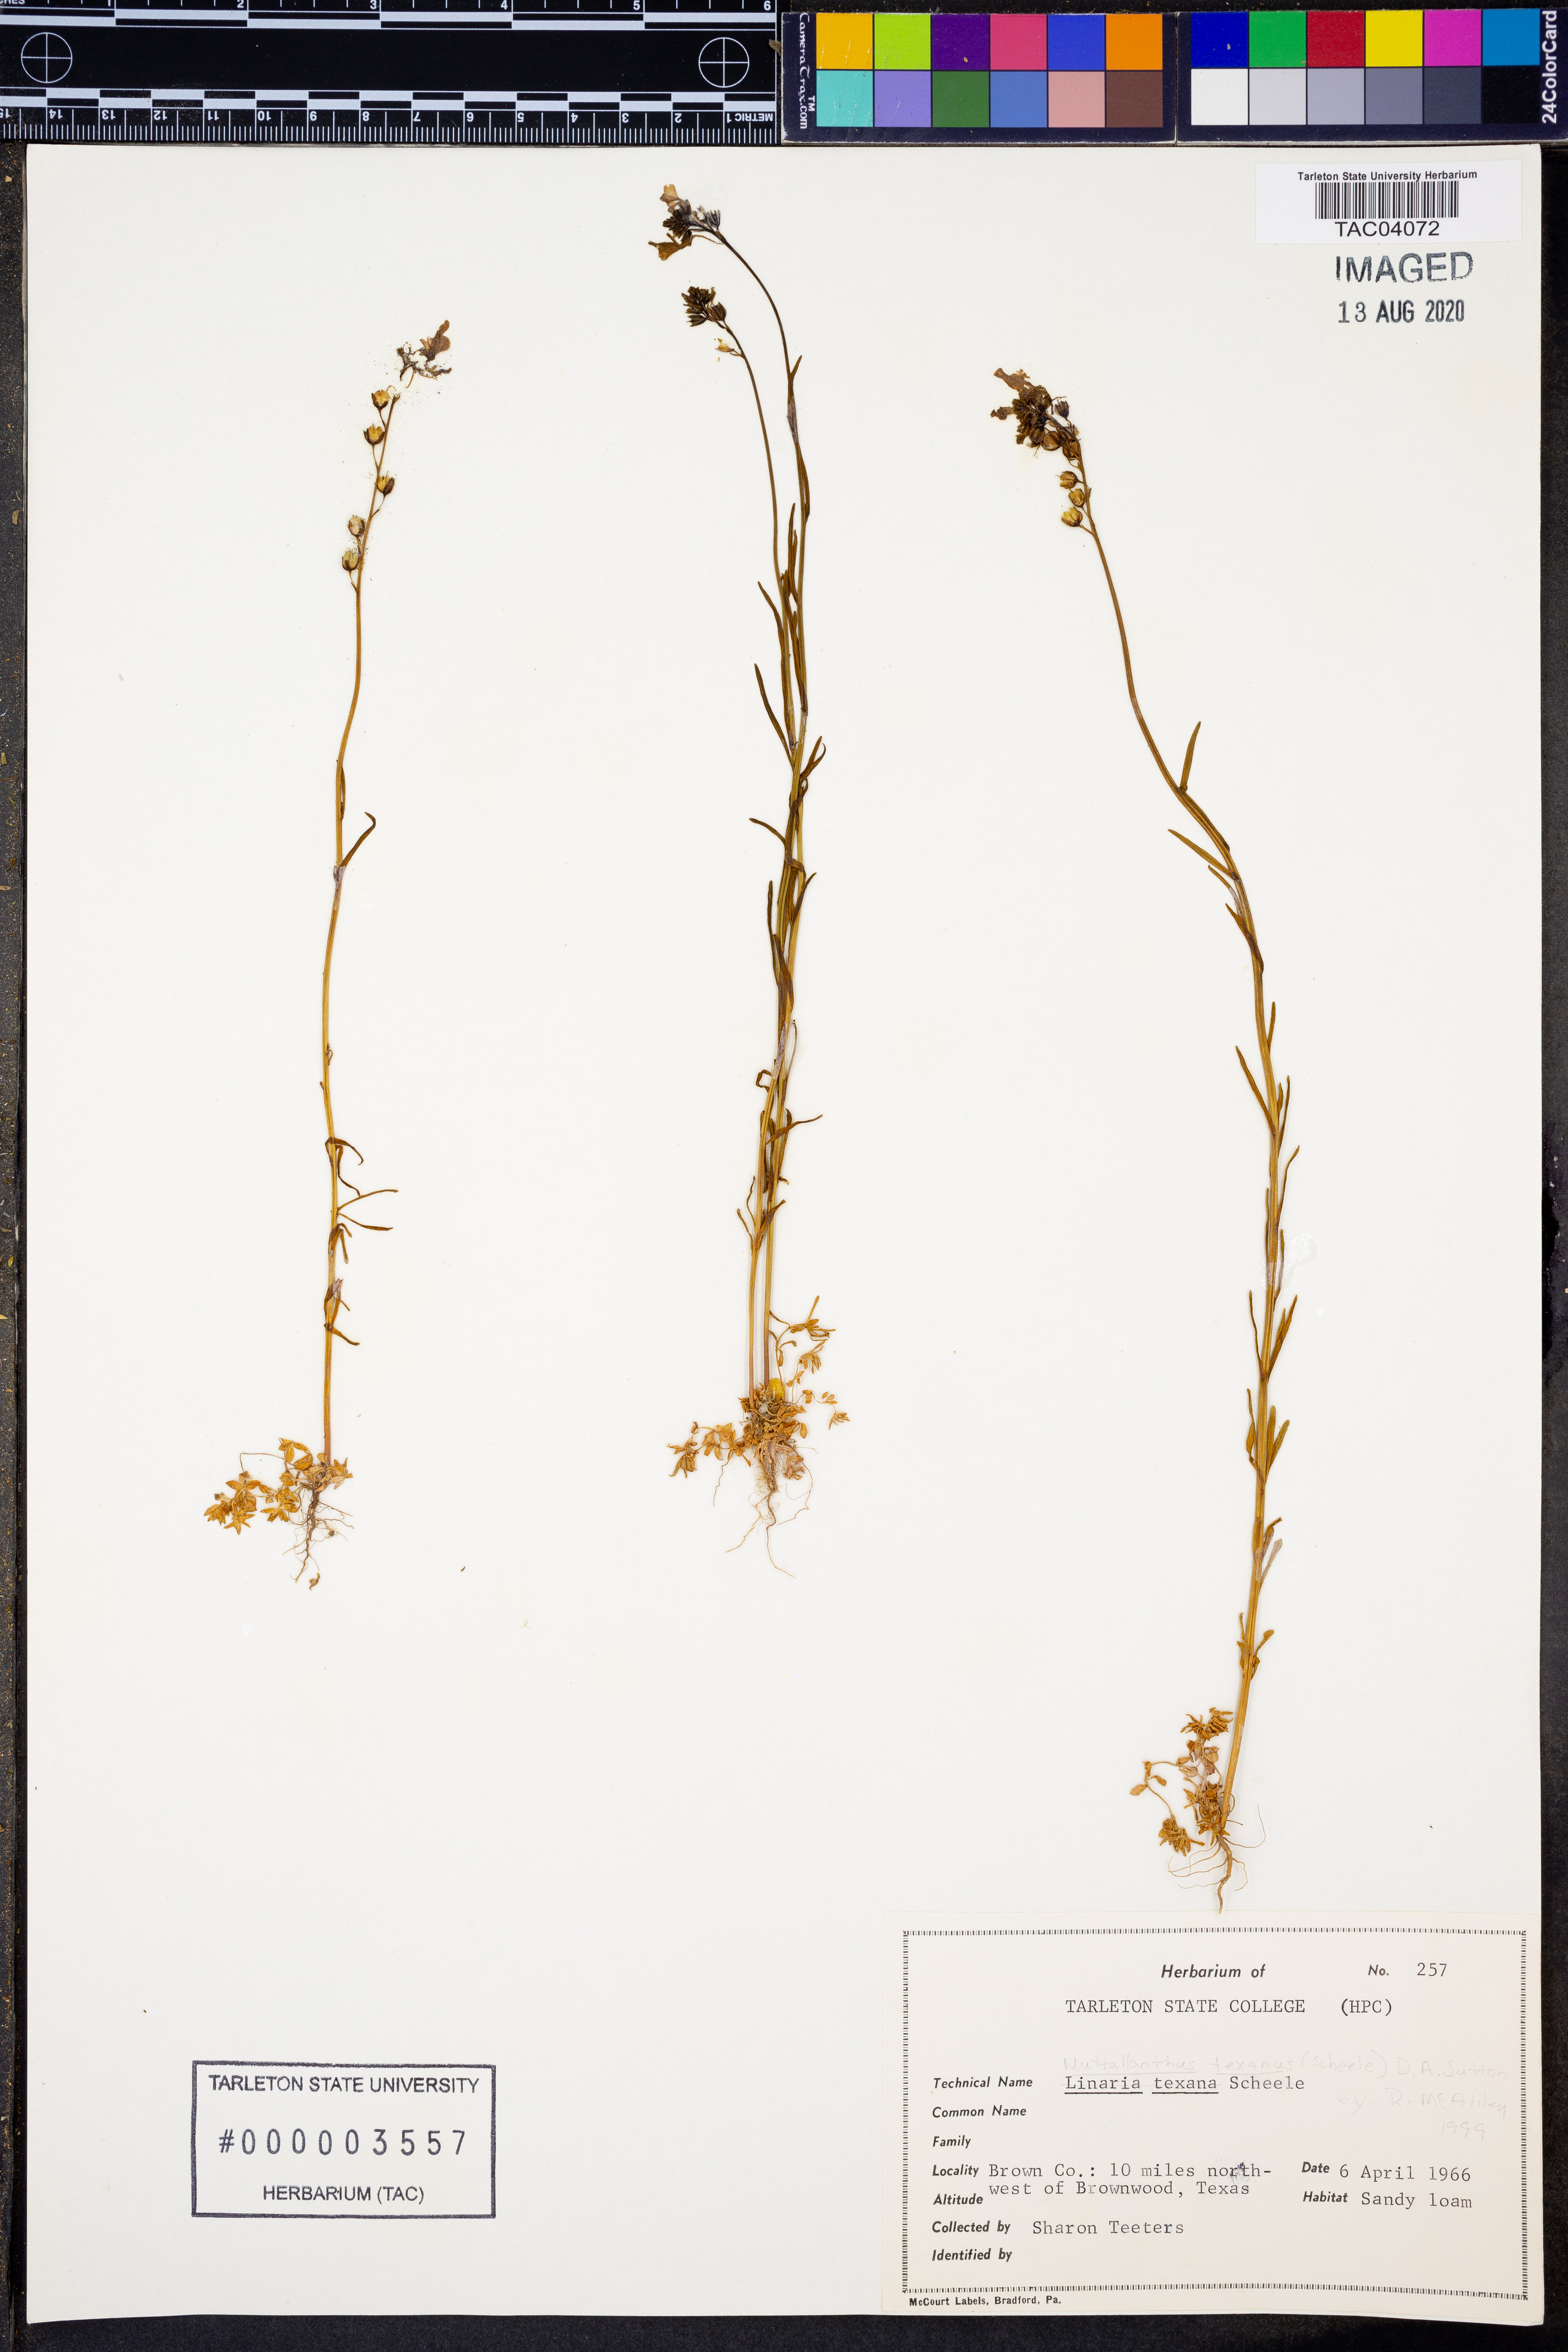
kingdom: Plantae
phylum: Tracheophyta
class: Magnoliopsida
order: Lamiales
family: Plantaginaceae
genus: Nuttallanthus
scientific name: Nuttallanthus texanus
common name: Texas toadflax
